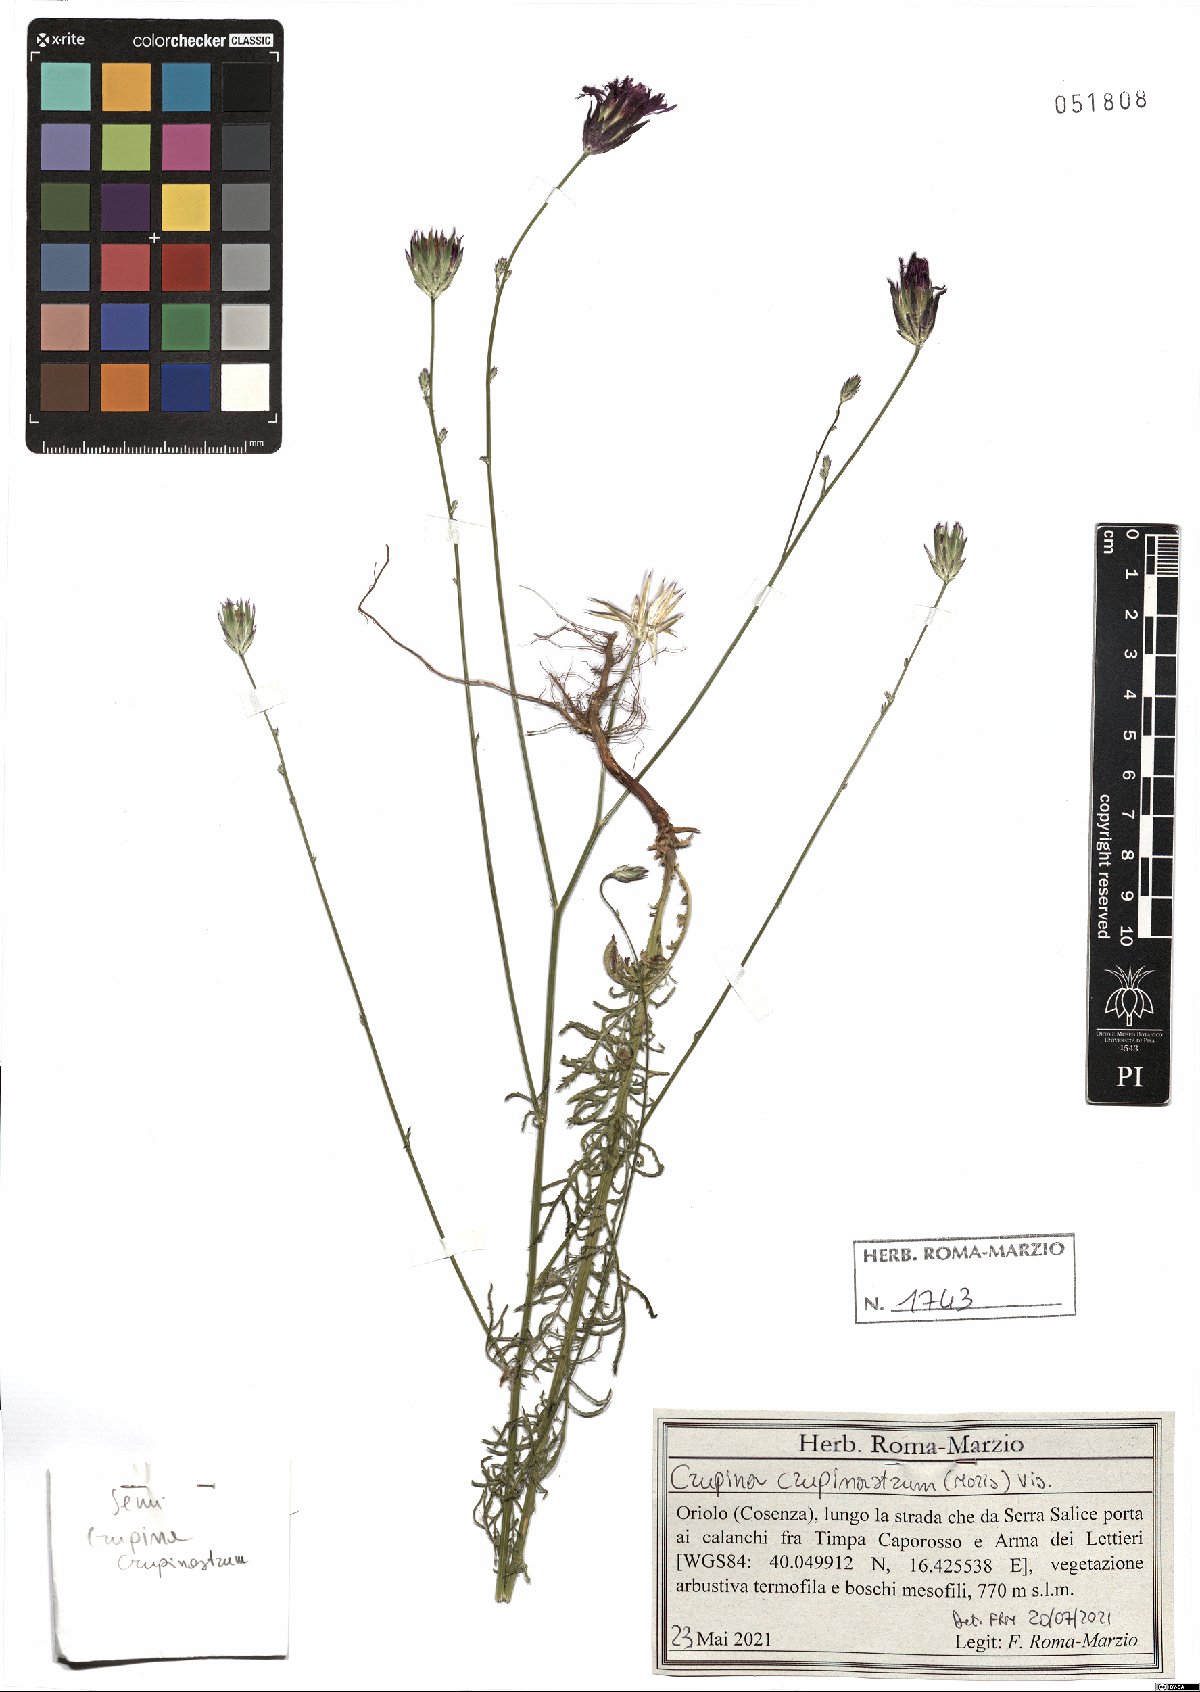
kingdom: Plantae
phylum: Tracheophyta
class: Magnoliopsida
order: Asterales
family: Asteraceae
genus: Crupina
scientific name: Crupina crupinastrum
